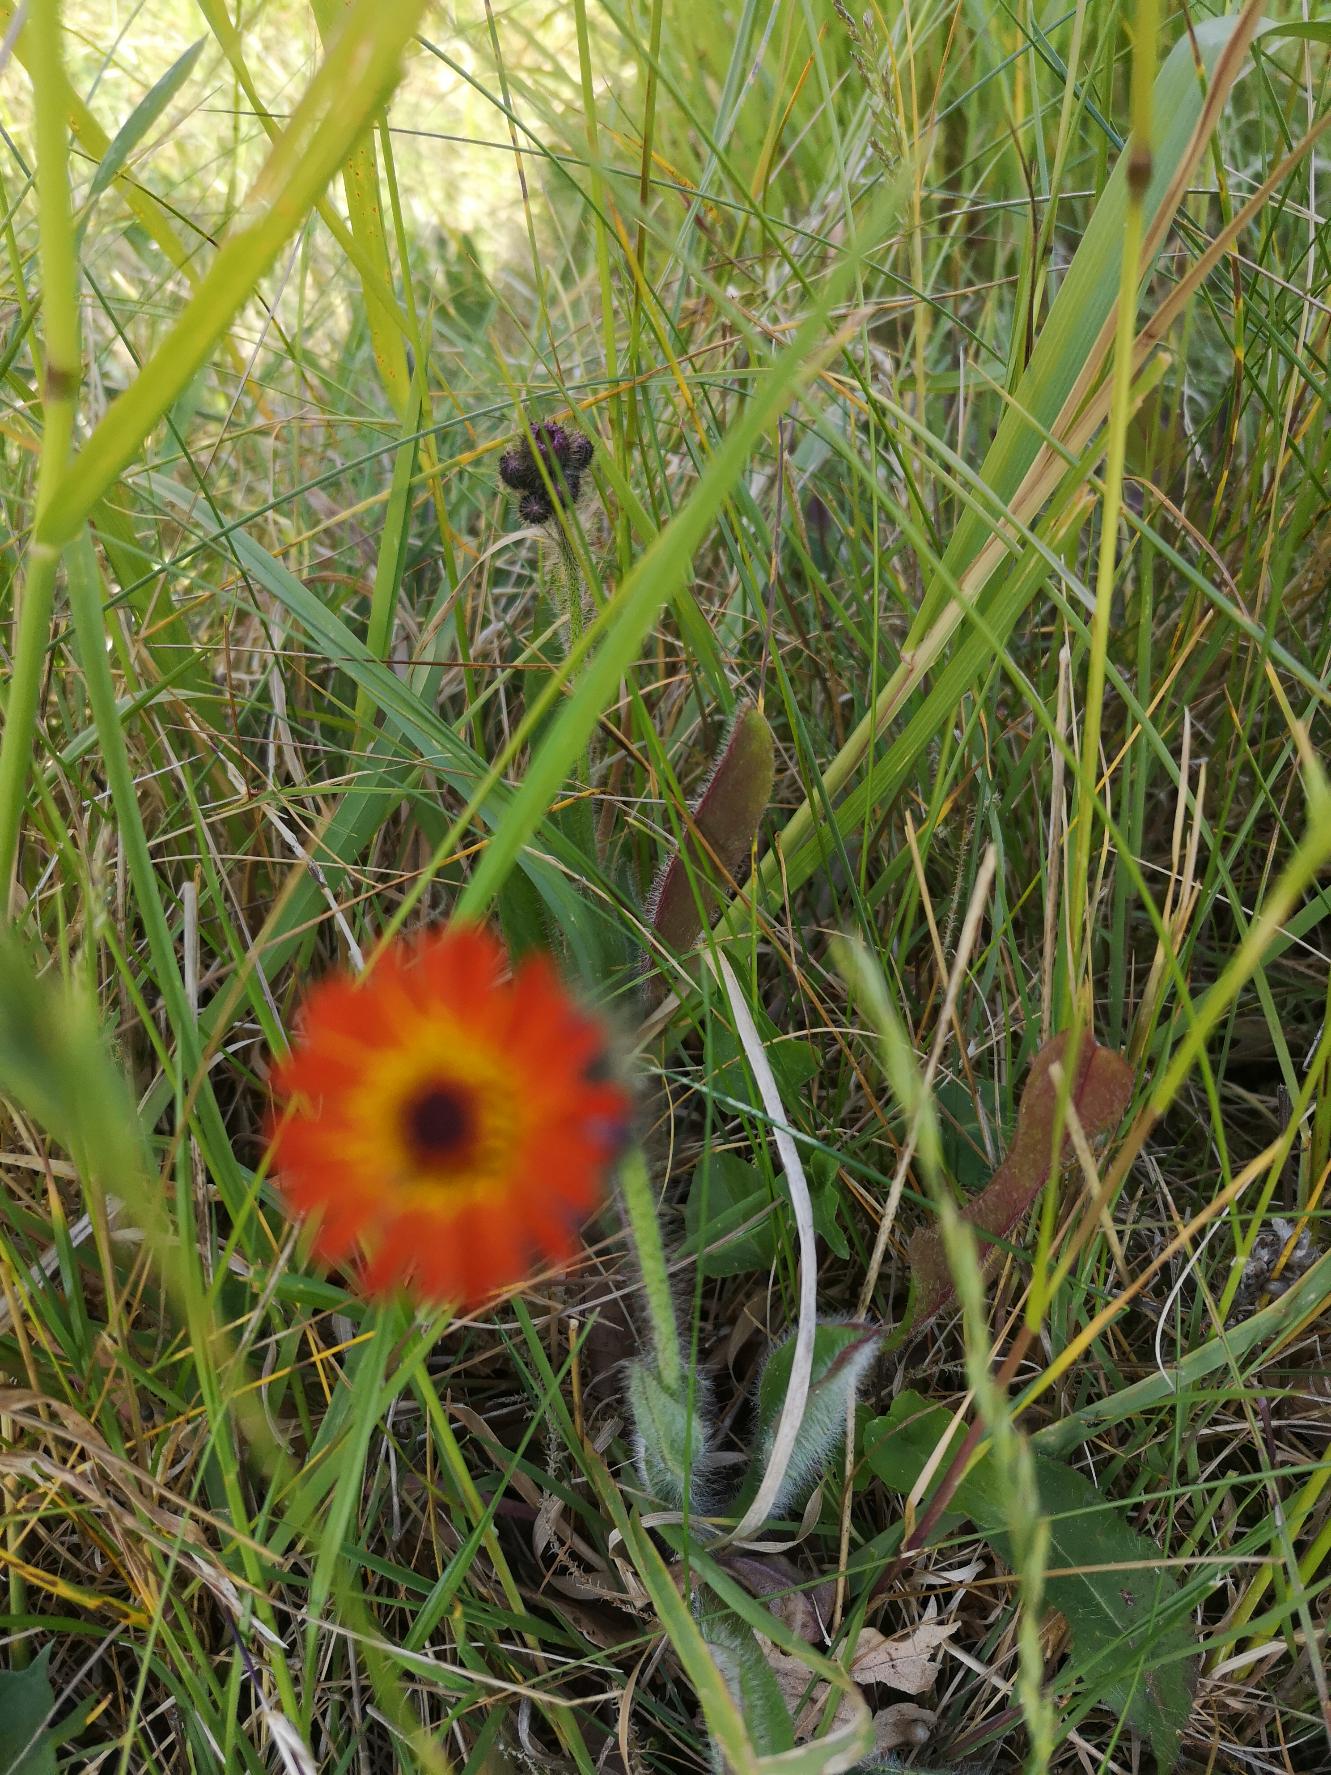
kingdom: Plantae
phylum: Tracheophyta
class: Magnoliopsida
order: Asterales
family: Asteraceae
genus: Pilosella
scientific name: Pilosella aurantiaca
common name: Pomerans-høgeurt
